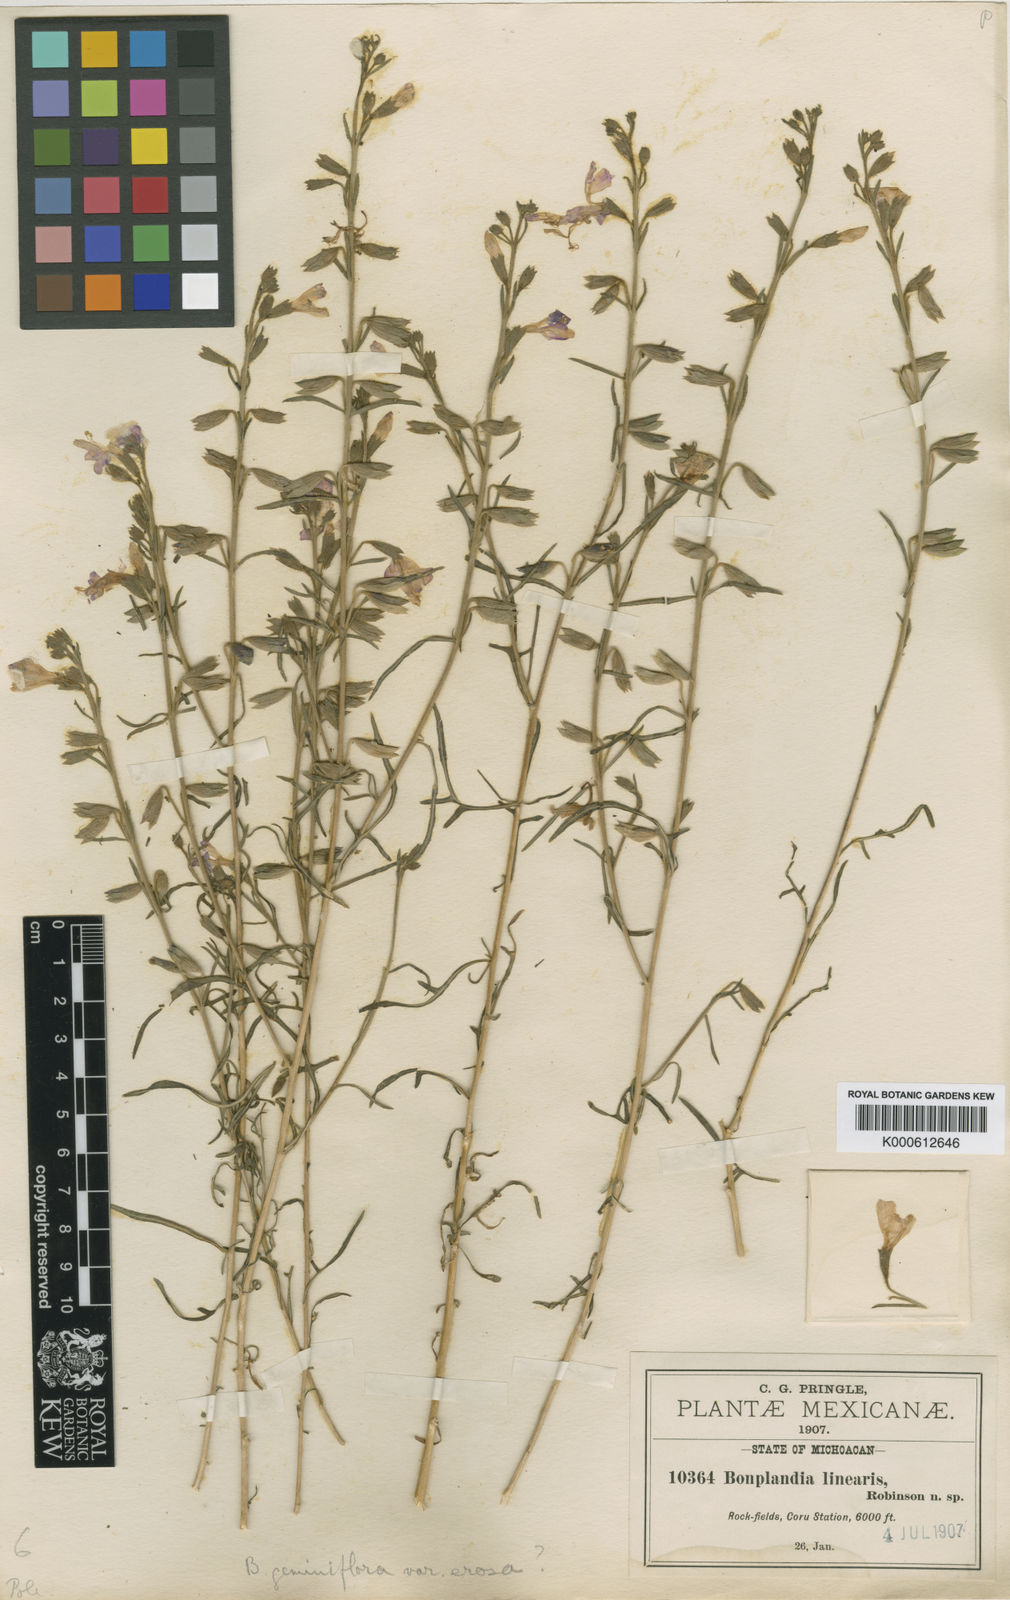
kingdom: Plantae
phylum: Tracheophyta
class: Magnoliopsida
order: Ericales
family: Polemoniaceae
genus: Bonplandia
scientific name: Bonplandia linearis
